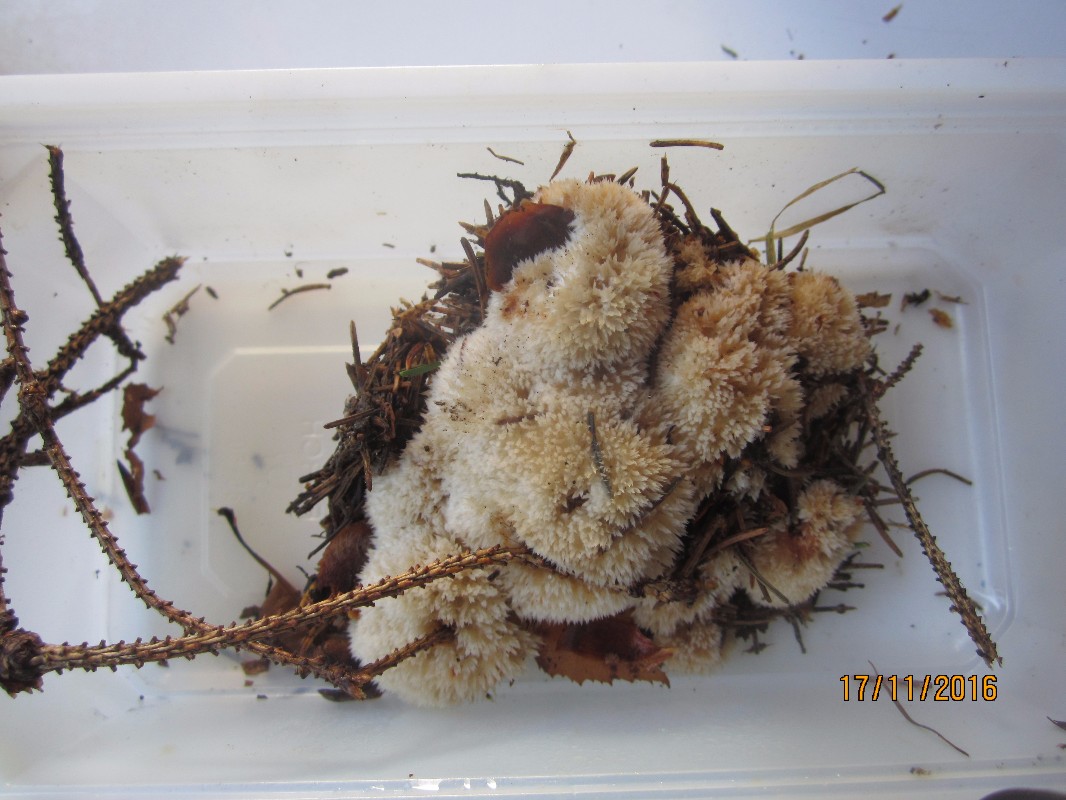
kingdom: Fungi
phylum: Basidiomycota
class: Agaricomycetes
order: Polyporales
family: Dacryobolaceae
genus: Postia
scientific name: Postia ptychogaster
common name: støvende kødporesvamp
